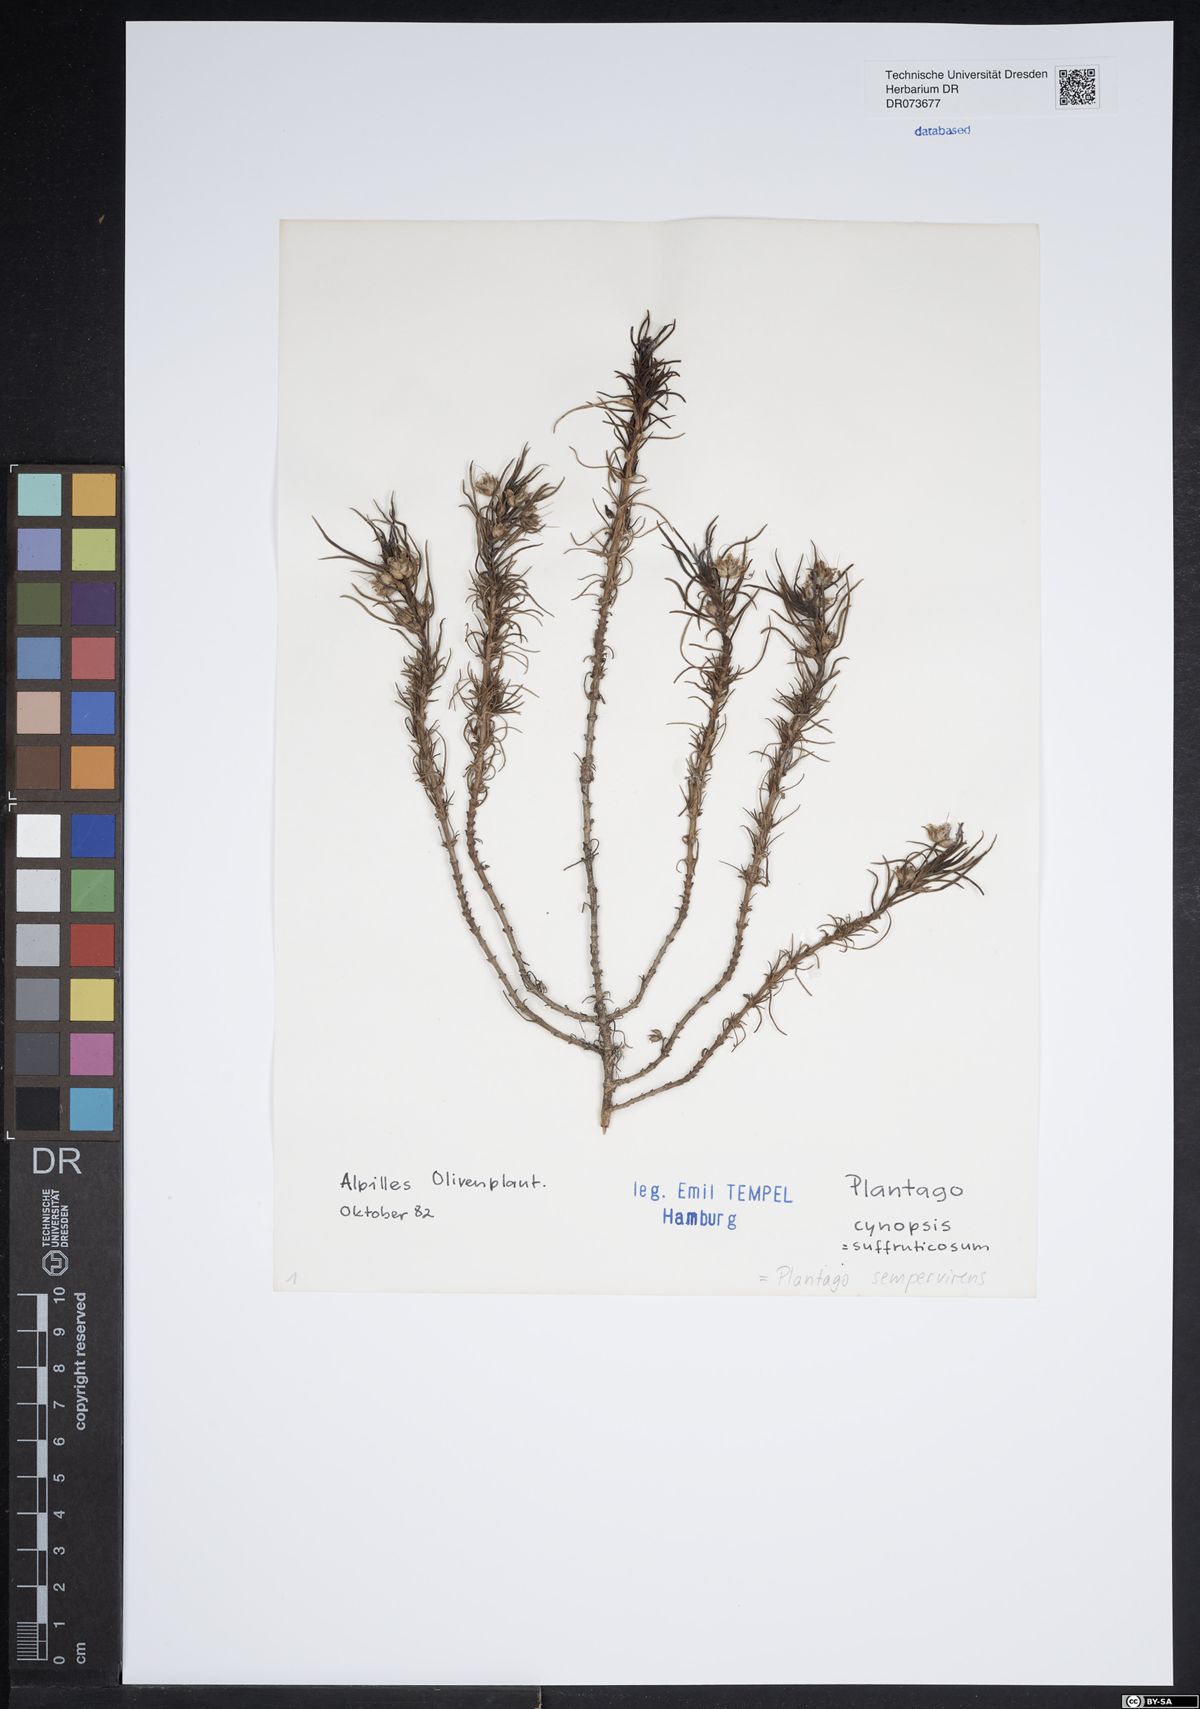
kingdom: Plantae
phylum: Tracheophyta
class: Magnoliopsida
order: Lamiales
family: Plantaginaceae
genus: Plantago
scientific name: Plantago sempervirens
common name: Shrubby plantain
